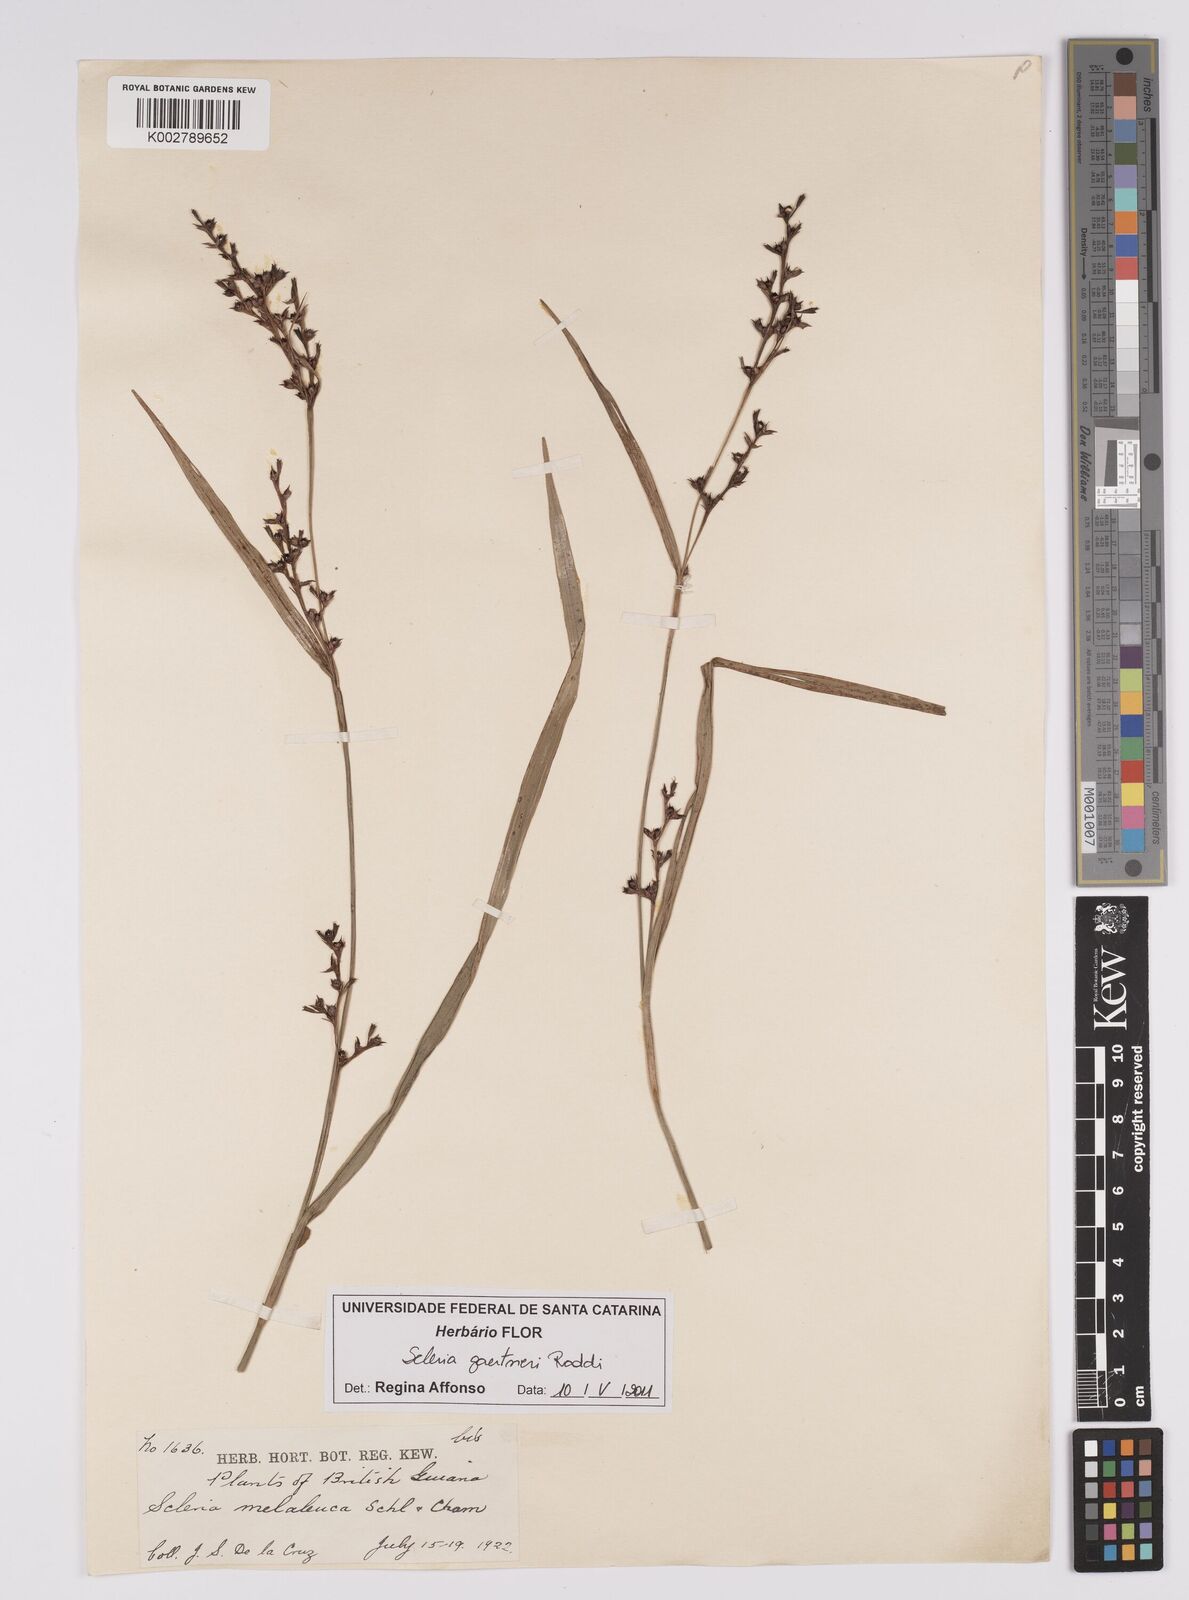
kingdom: Plantae
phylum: Tracheophyta
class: Liliopsida
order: Poales
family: Cyperaceae
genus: Scleria
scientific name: Scleria gaertneri
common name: Cortadera blanca
